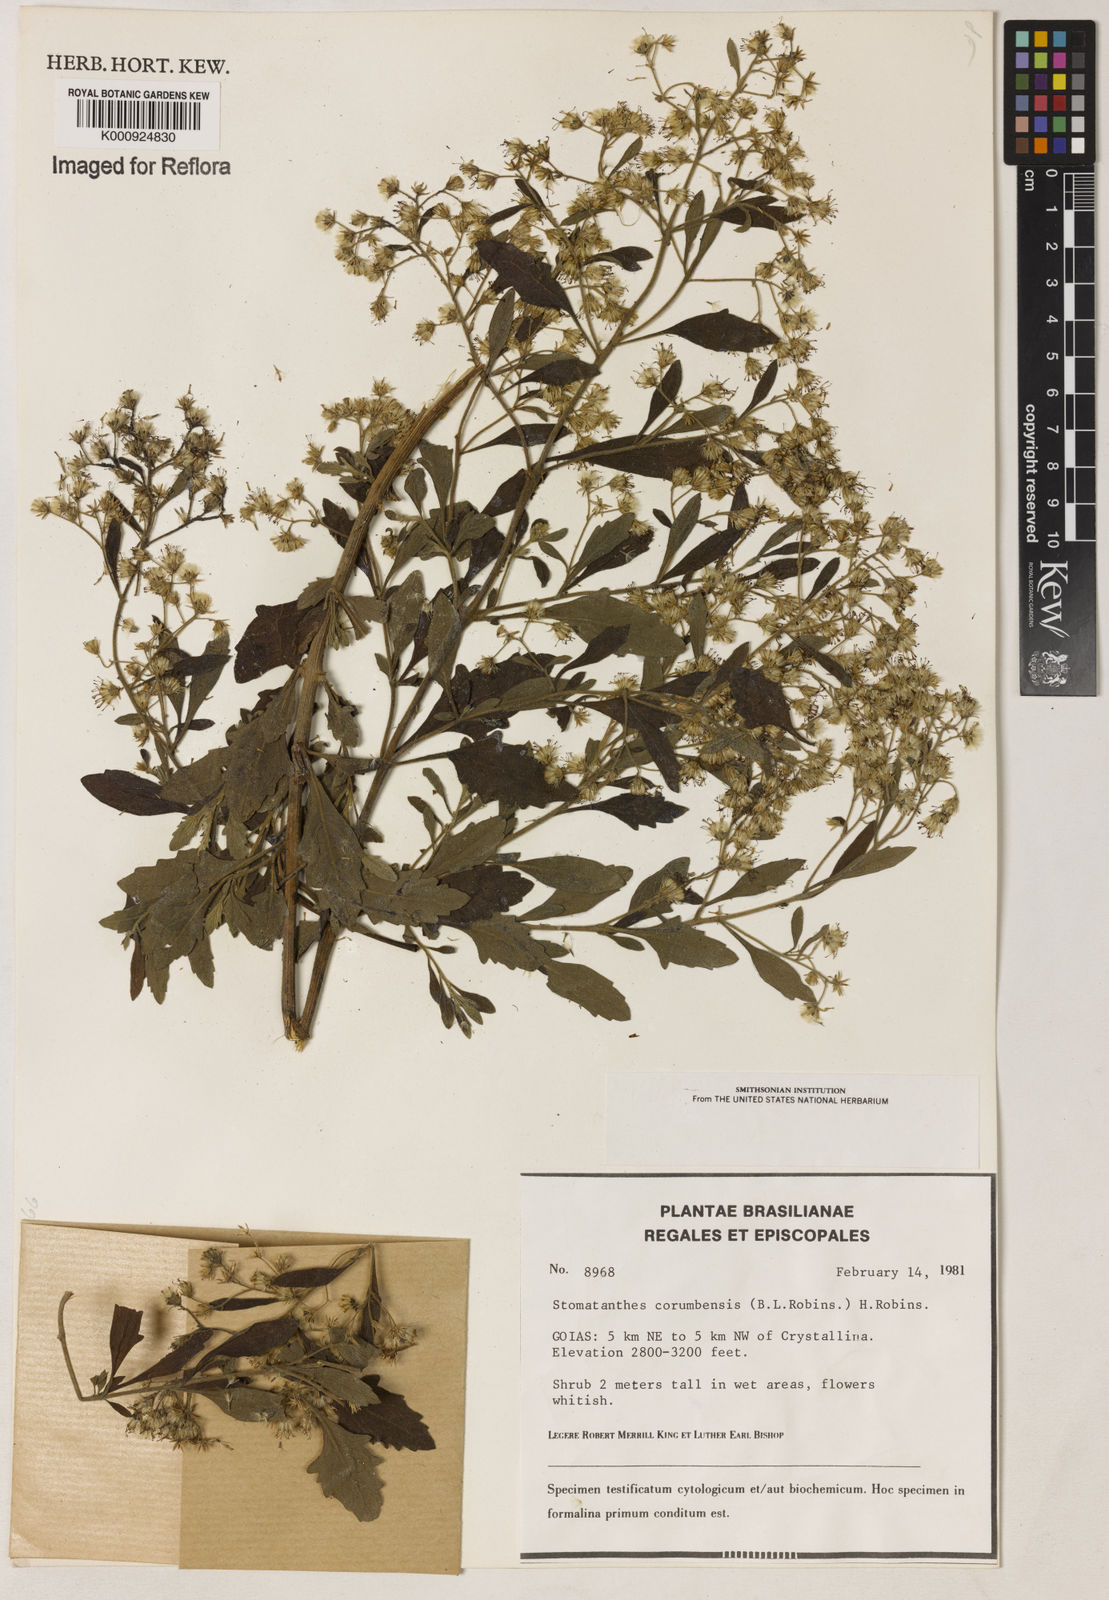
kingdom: Plantae
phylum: Tracheophyta
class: Magnoliopsida
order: Asterales
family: Asteraceae
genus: Stomatanthes
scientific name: Stomatanthes
